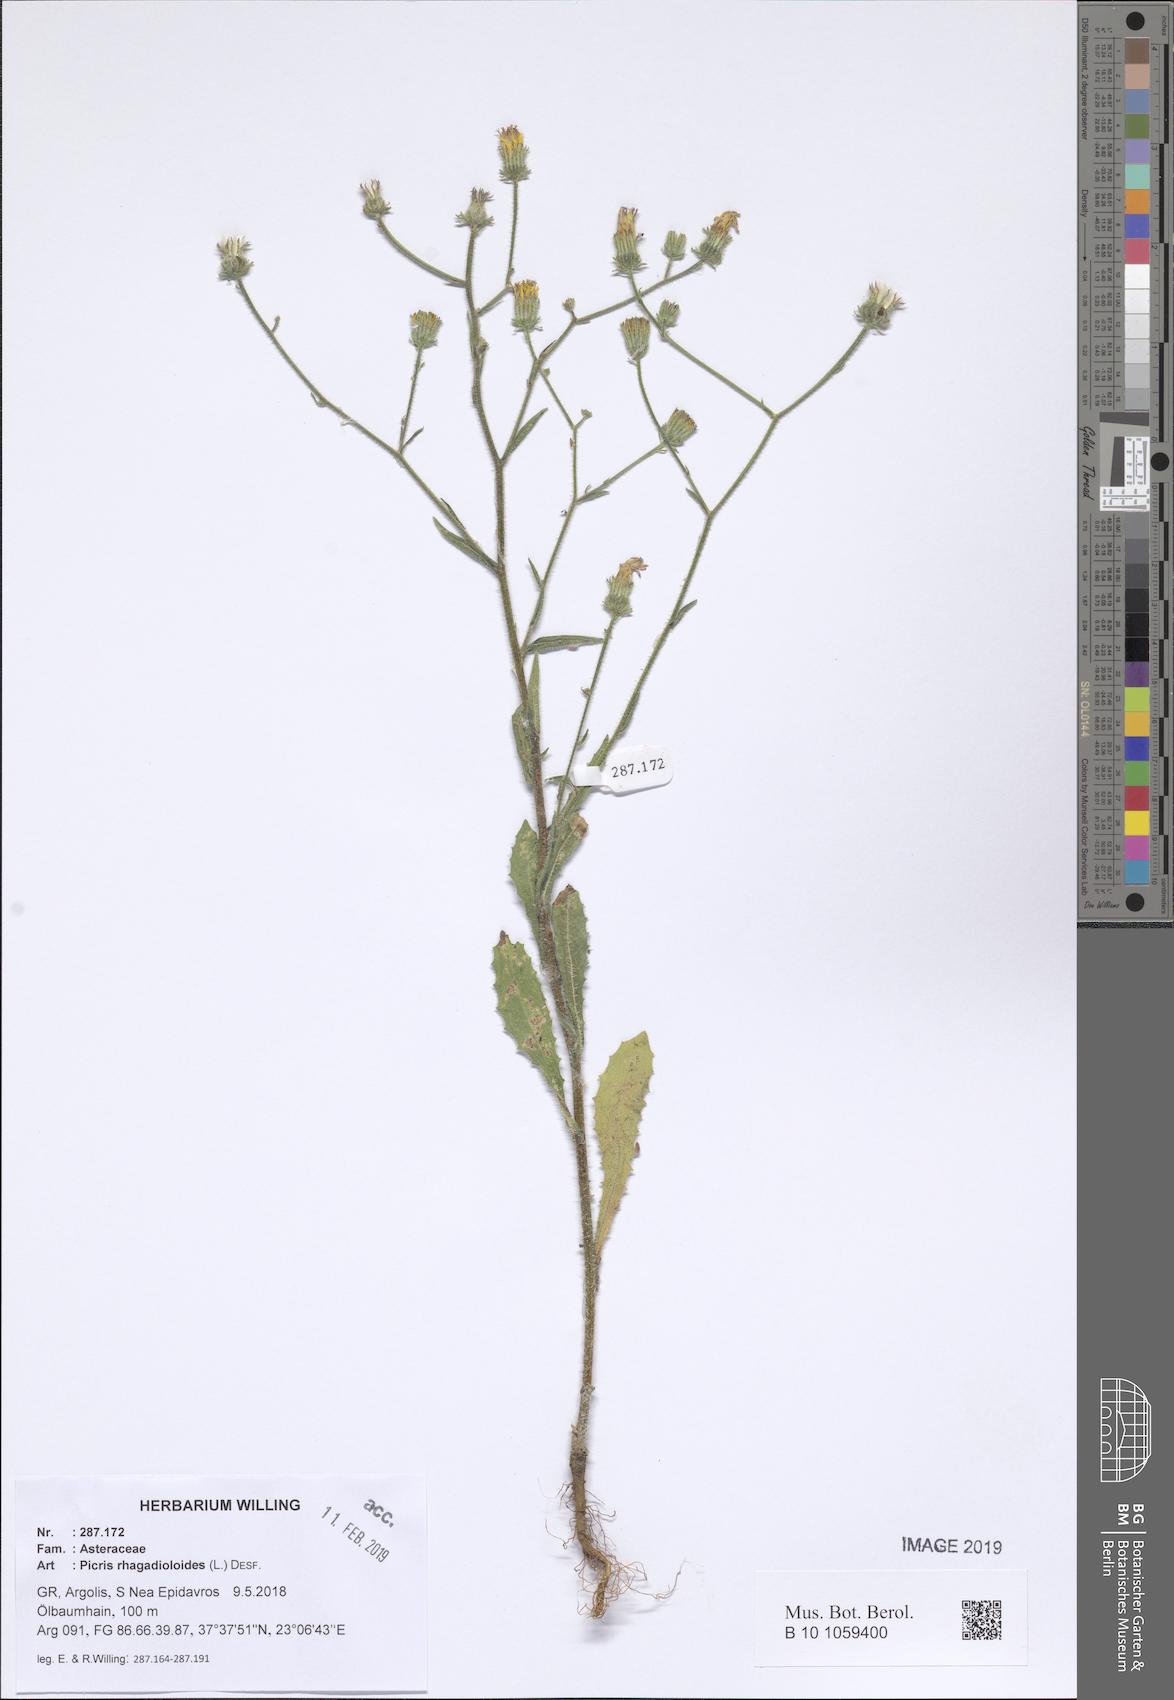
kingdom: Plantae
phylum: Tracheophyta
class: Magnoliopsida
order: Asterales
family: Asteraceae
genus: Picris
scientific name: Picris rhagadioloides
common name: Oxtongue
